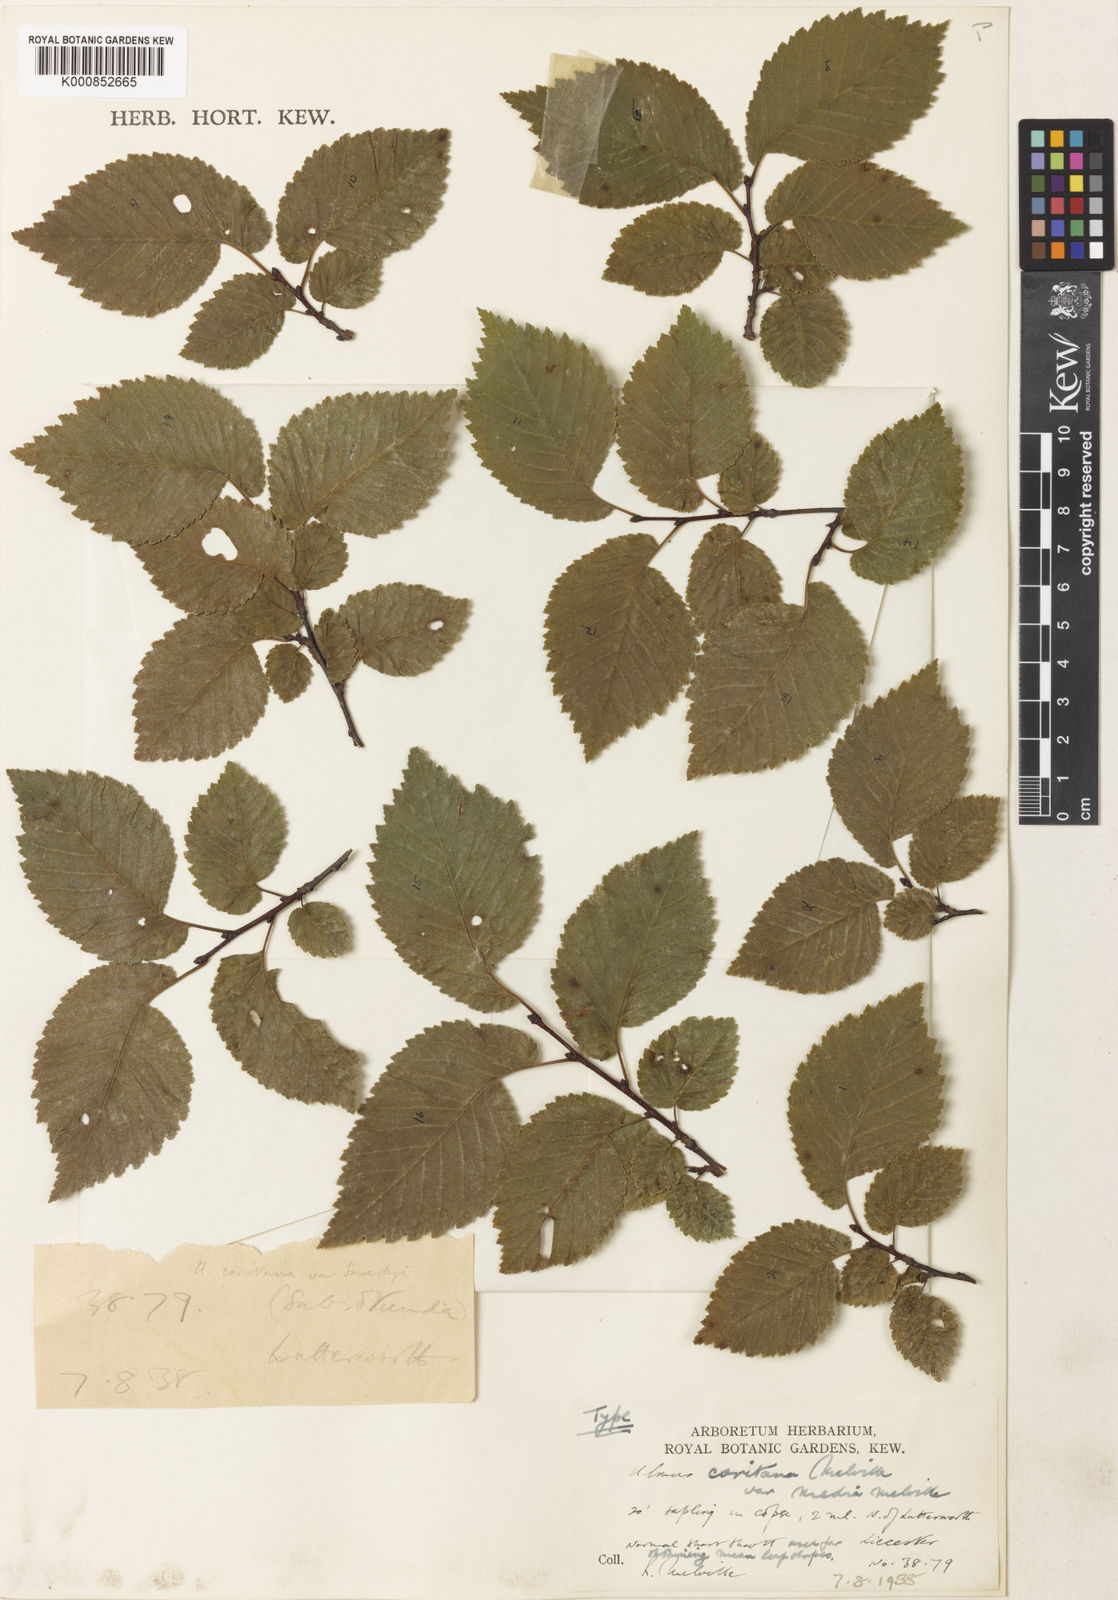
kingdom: Plantae
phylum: Tracheophyta
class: Magnoliopsida
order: Rosales
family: Ulmaceae
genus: Ulmus
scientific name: Ulmus minor
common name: Small-leaved elm
